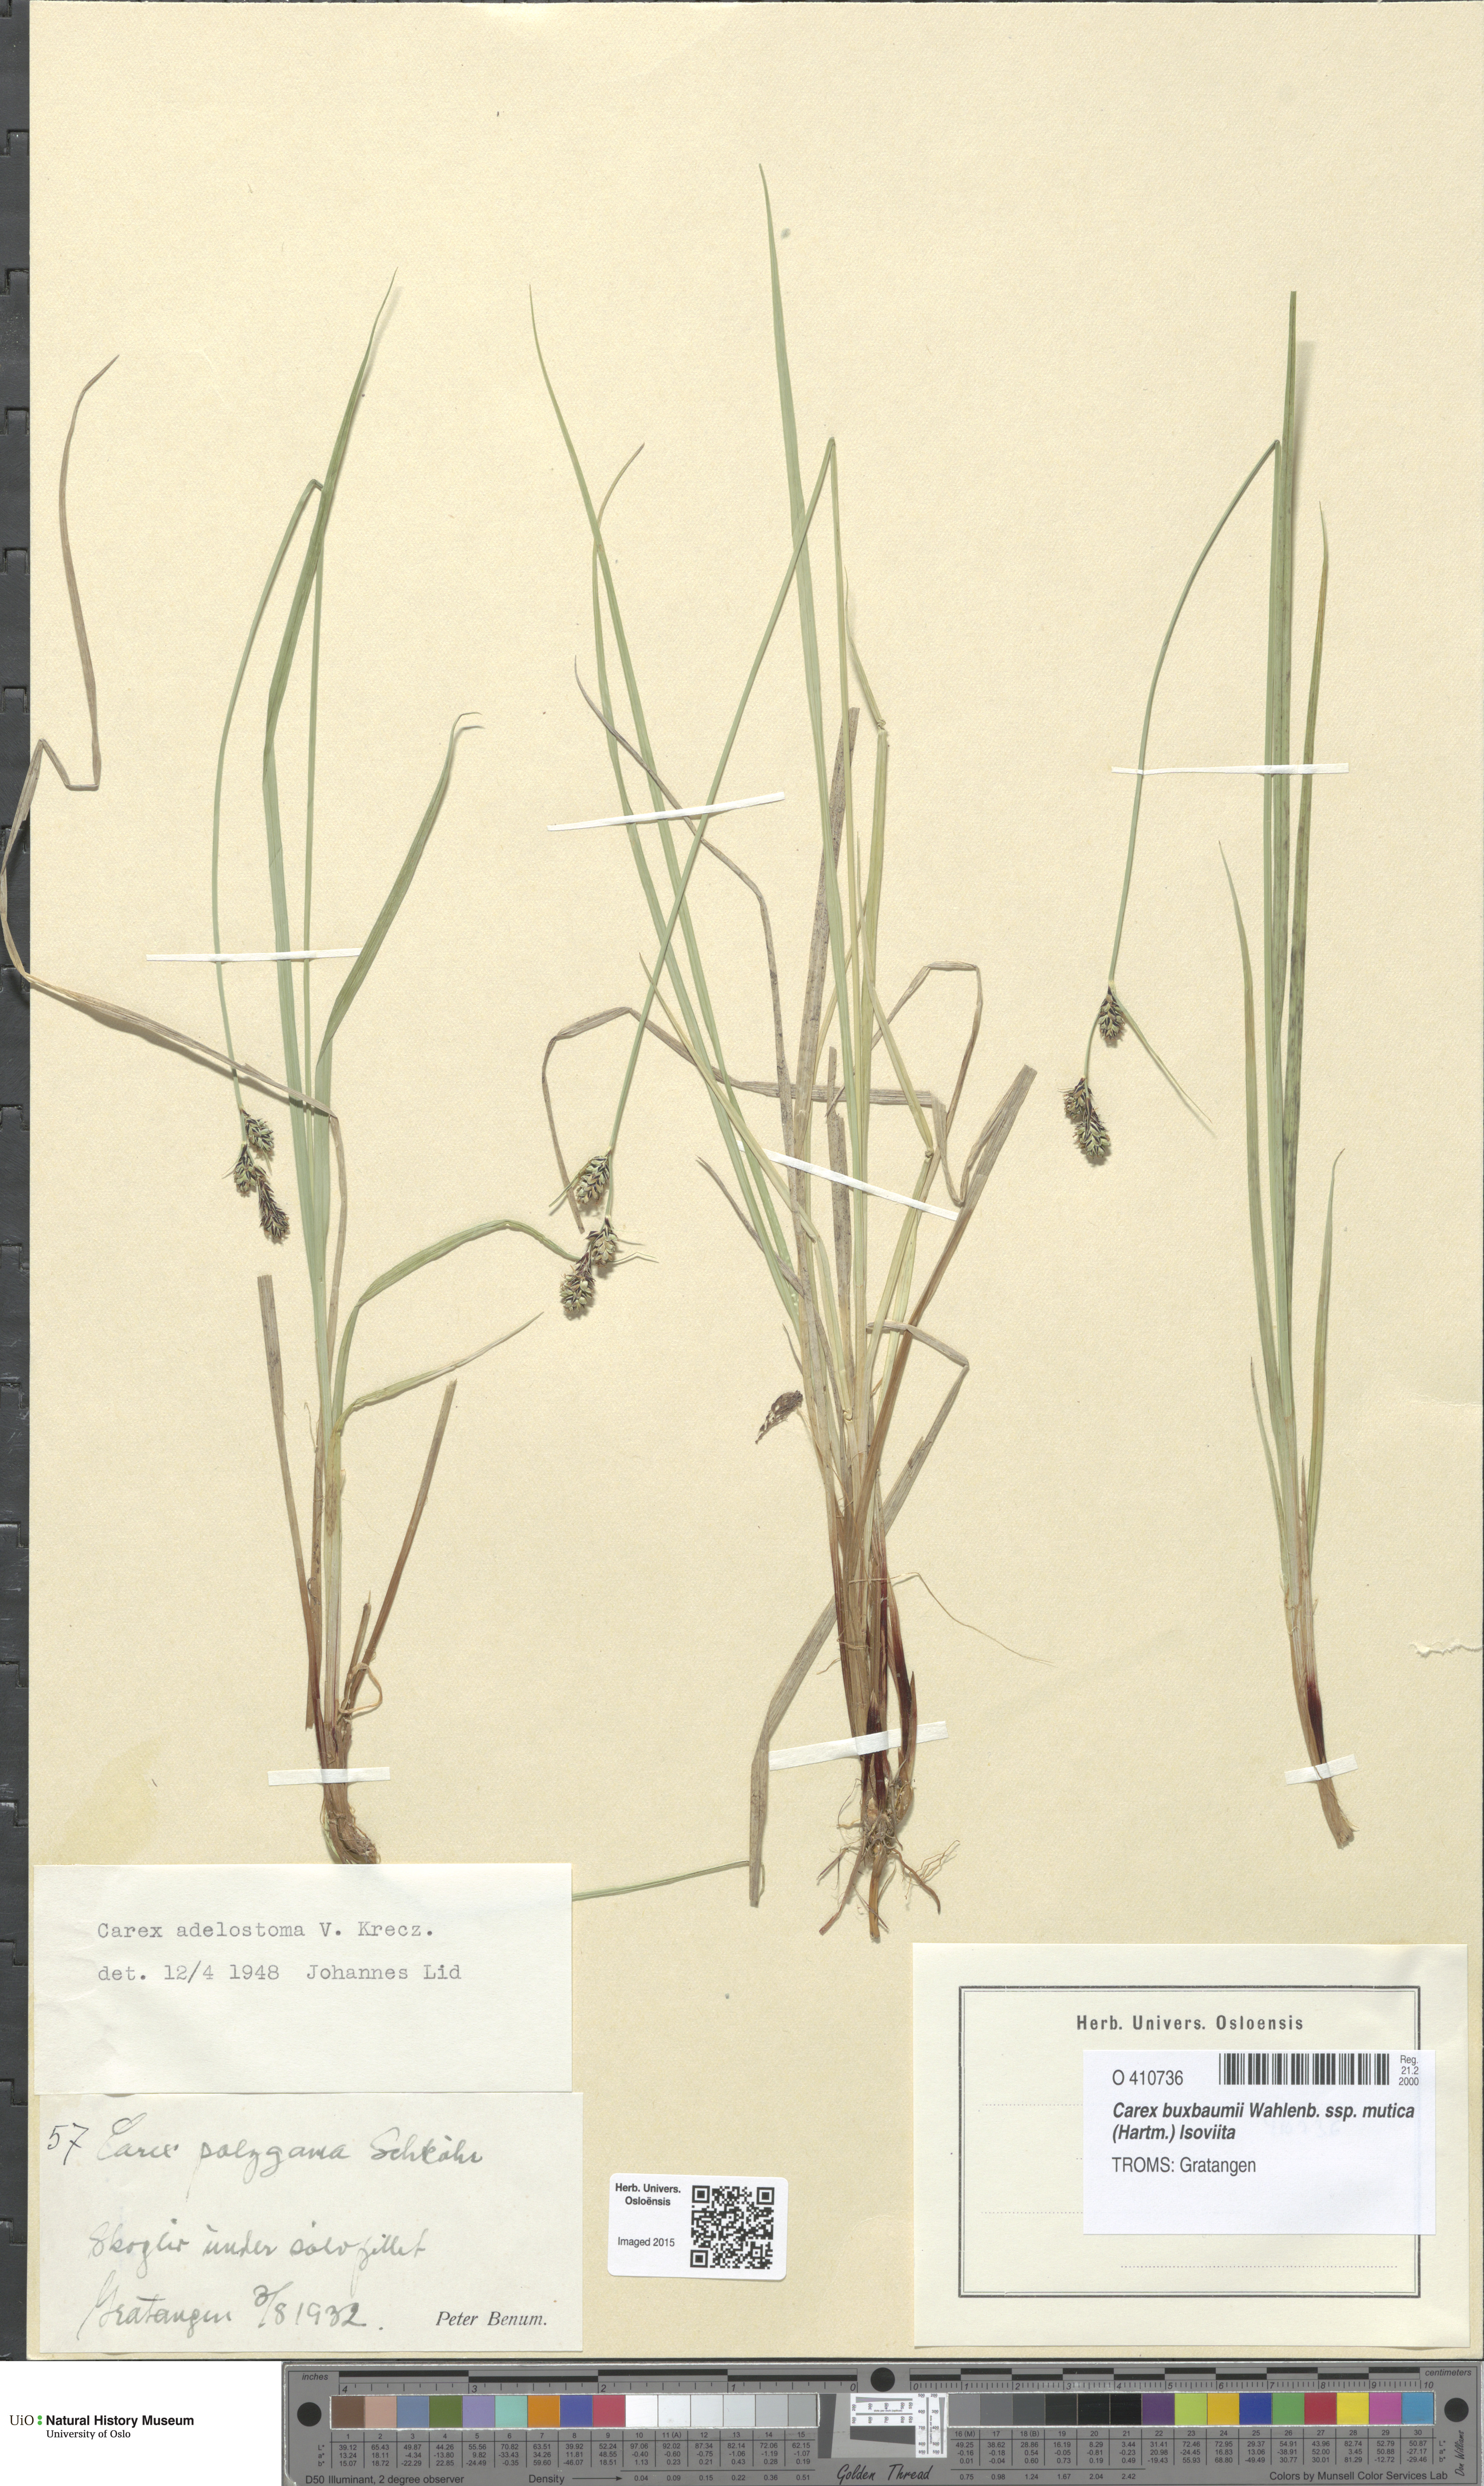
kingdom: Plantae
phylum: Tracheophyta
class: Liliopsida
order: Poales
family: Cyperaceae
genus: Carex
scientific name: Carex adelostoma
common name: Circumpolar sedge
